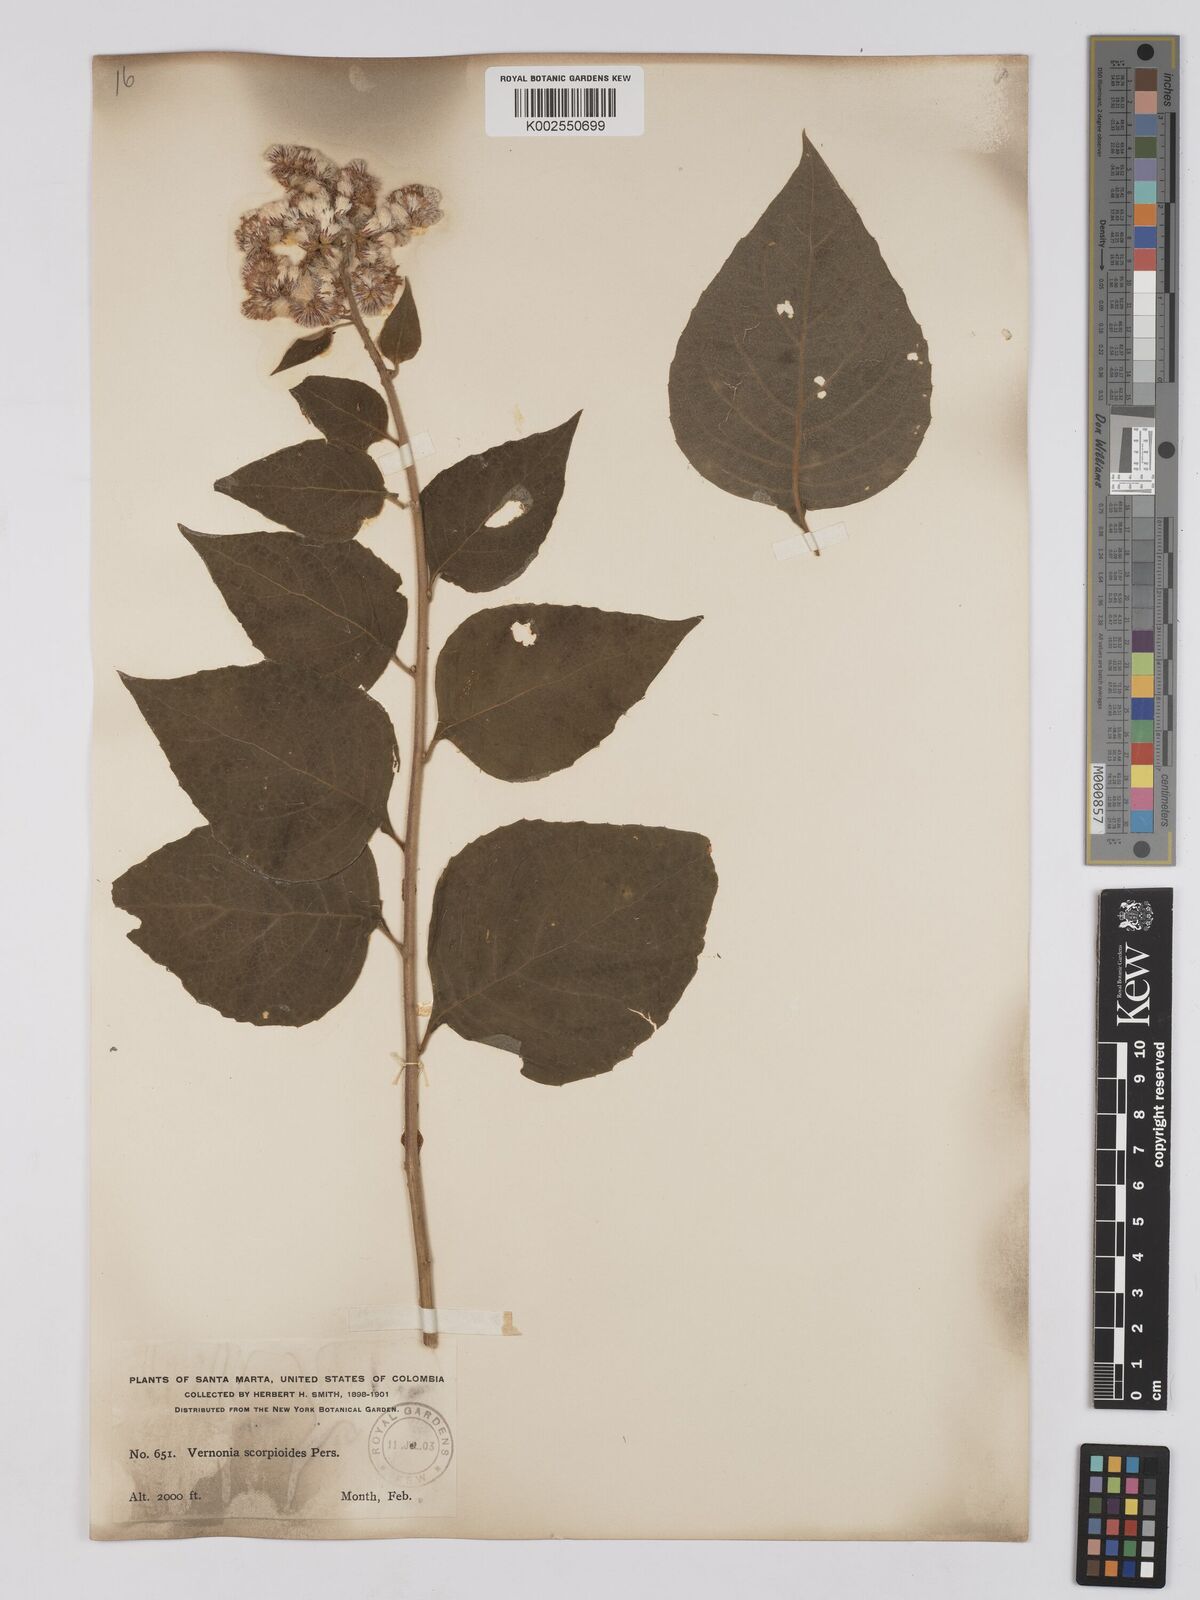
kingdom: Plantae
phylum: Tracheophyta
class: Magnoliopsida
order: Asterales
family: Asteraceae
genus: Cyrtocymura
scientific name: Cyrtocymura scorpioides
